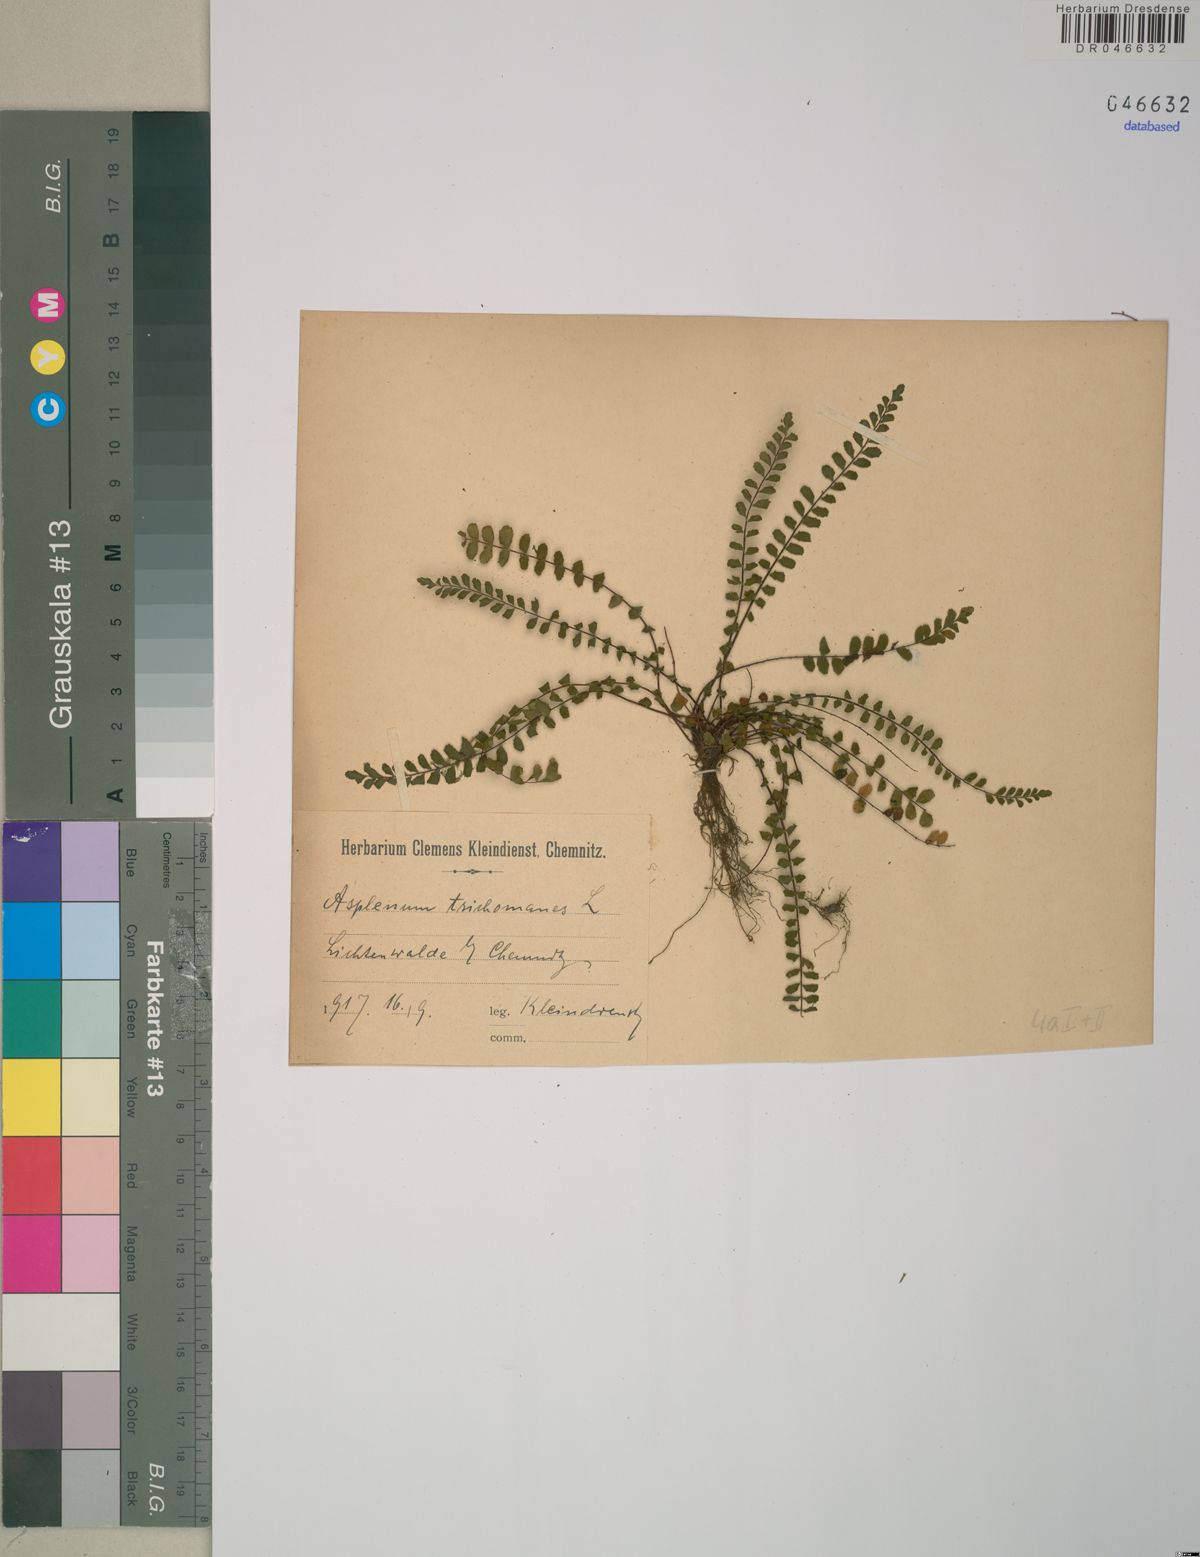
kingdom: Plantae
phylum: Tracheophyta
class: Polypodiopsida
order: Polypodiales
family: Aspleniaceae
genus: Asplenium
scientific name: Asplenium trichomanes
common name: Maidenhair spleenwort
